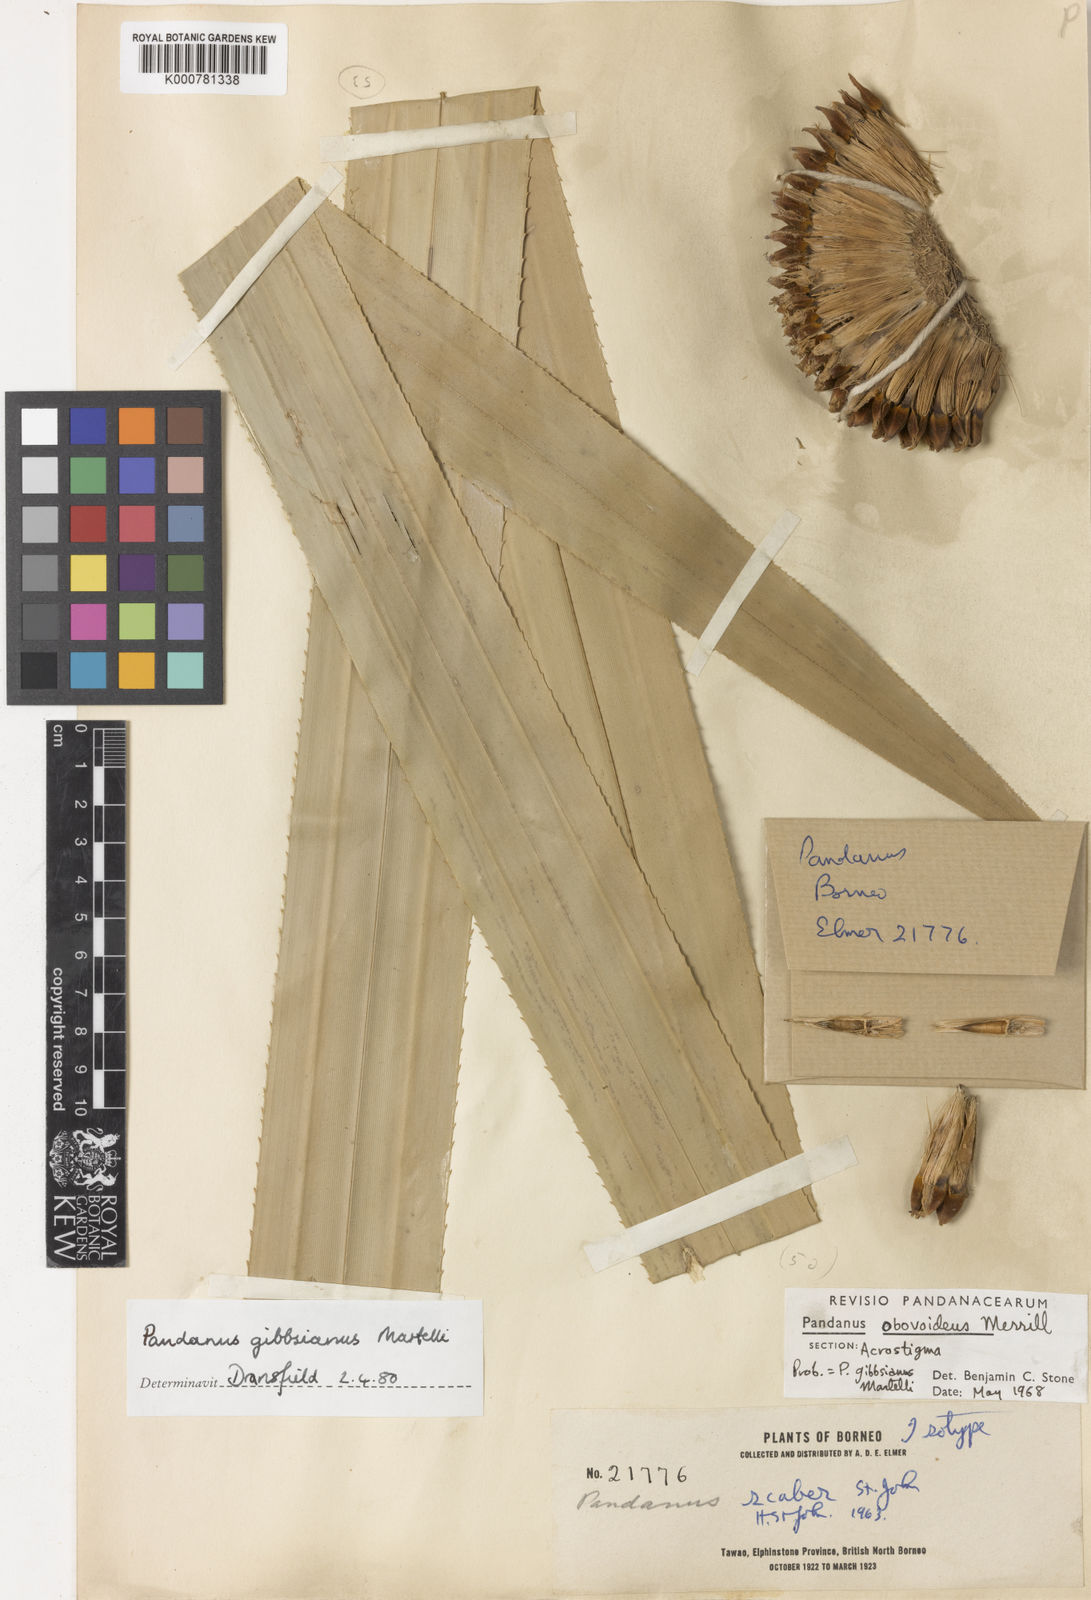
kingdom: Plantae
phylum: Tracheophyta
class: Liliopsida
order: Pandanales
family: Pandanaceae
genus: Benstonea
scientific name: Benstonea gibbsiana
